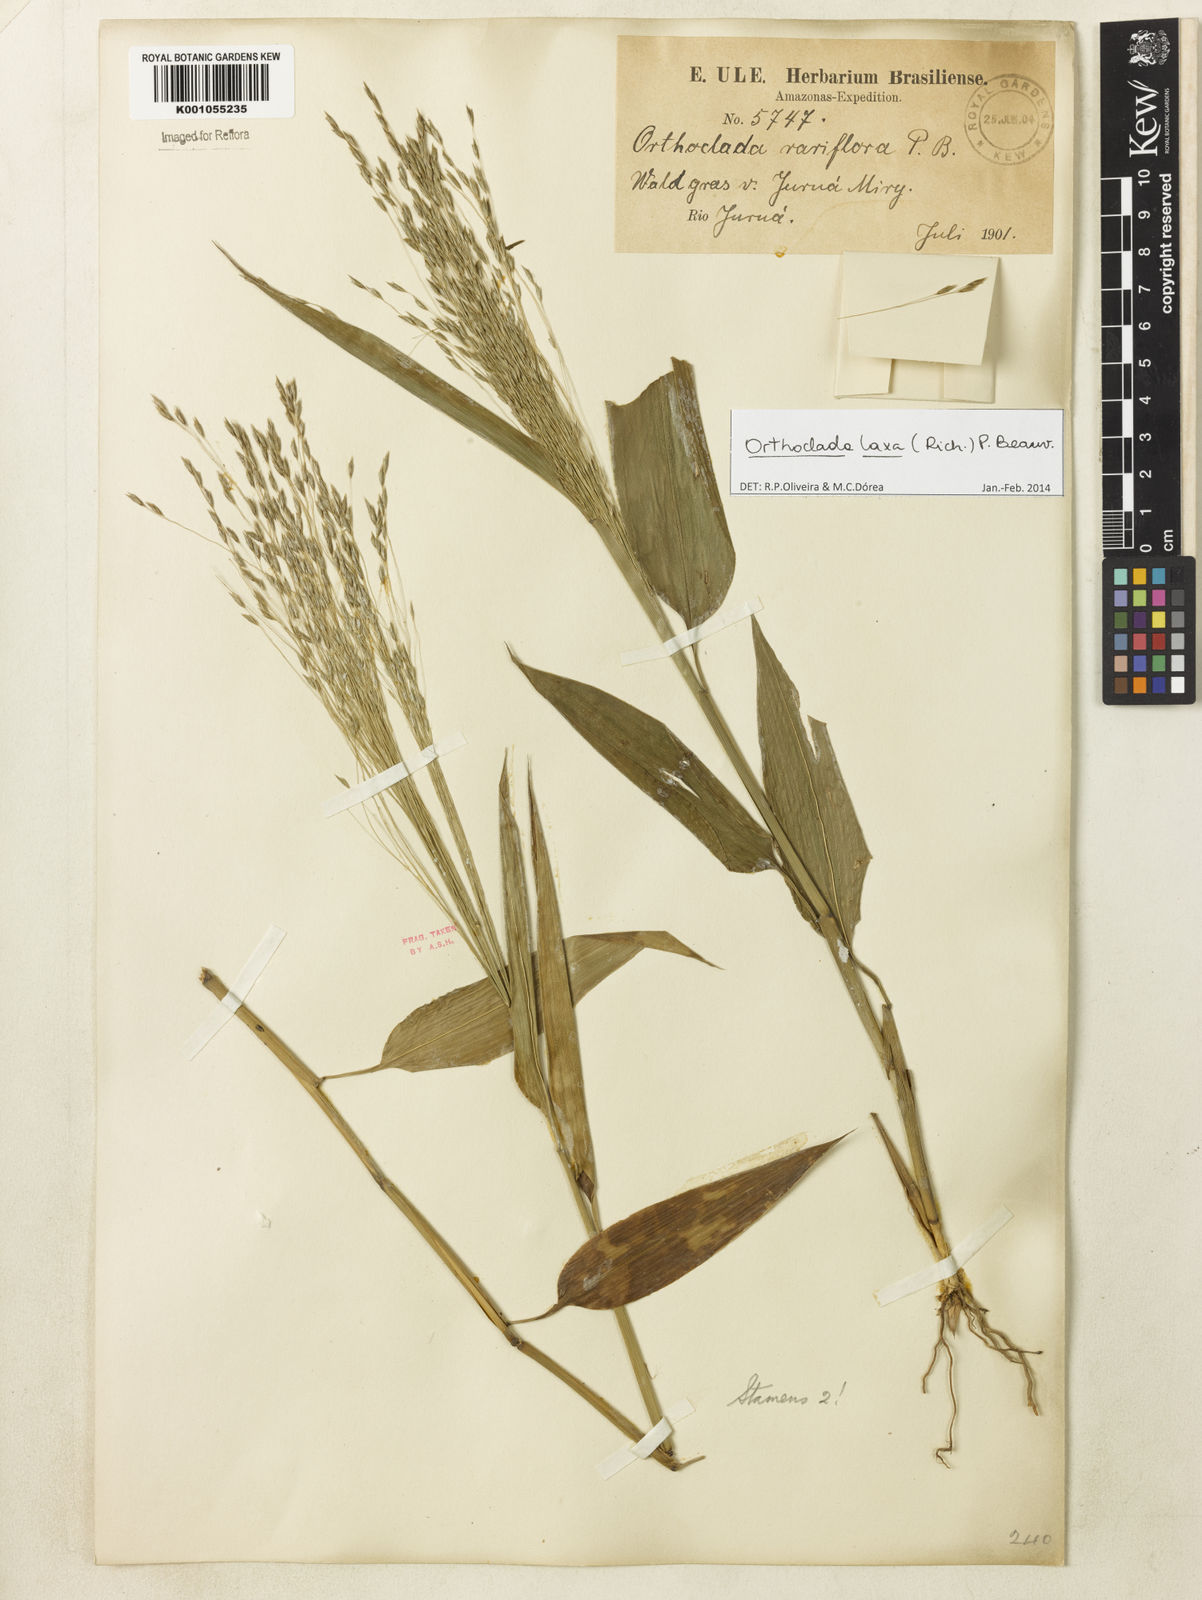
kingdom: Plantae
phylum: Tracheophyta
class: Liliopsida
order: Poales
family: Poaceae
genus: Orthoclada
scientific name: Orthoclada laxa
